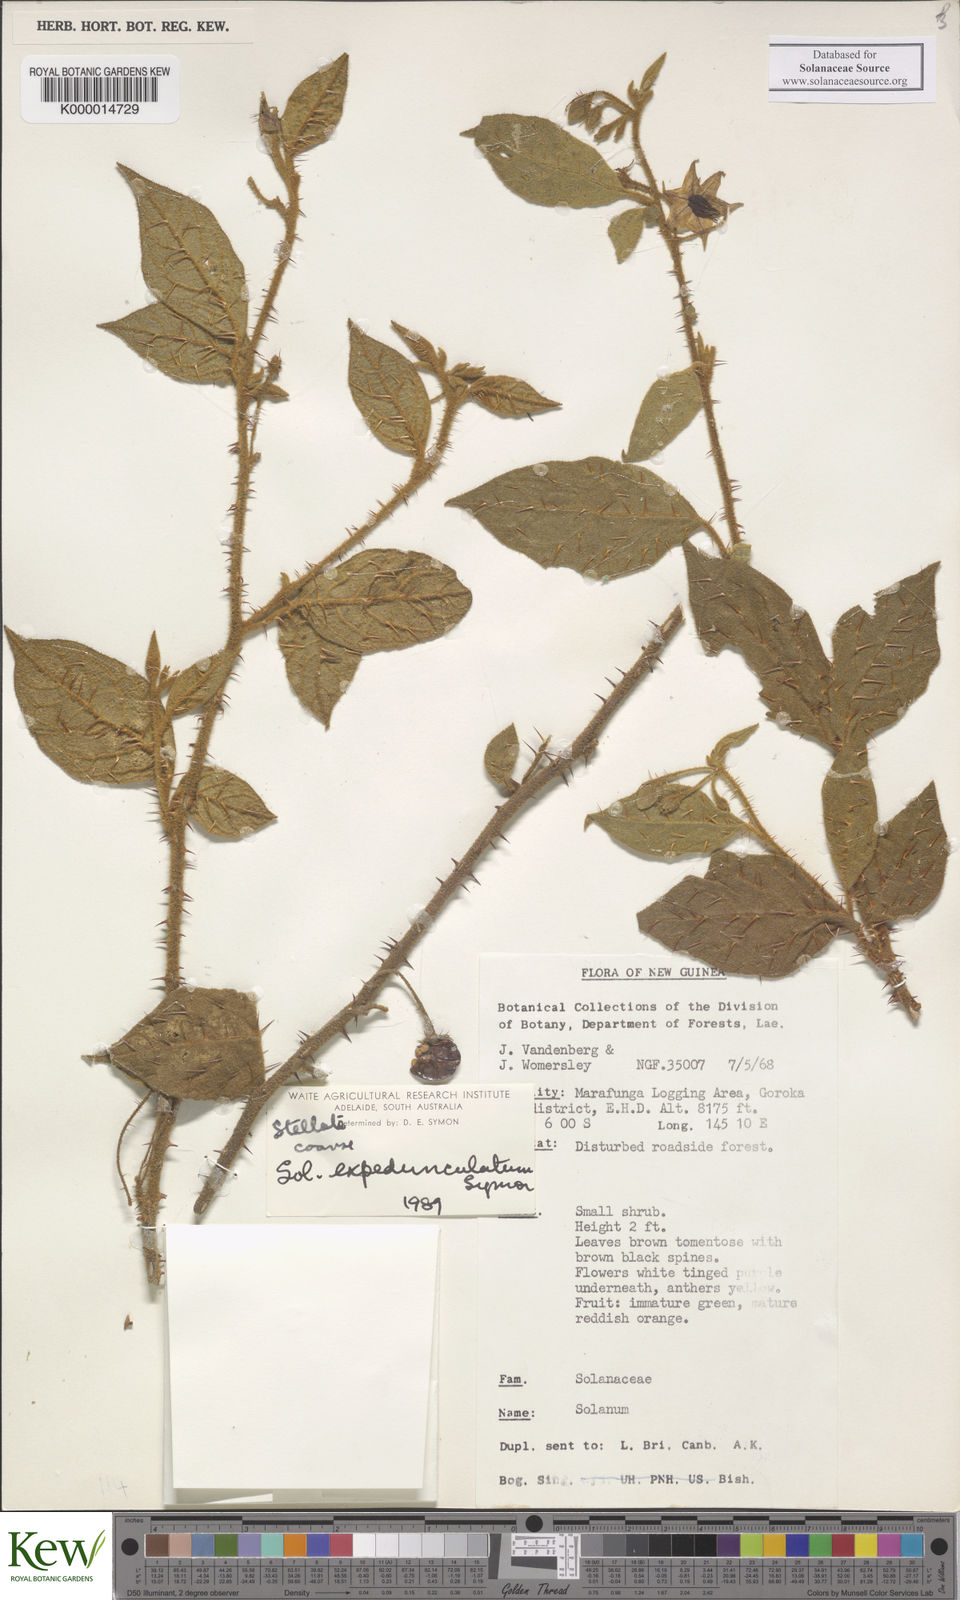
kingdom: Plantae
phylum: Tracheophyta
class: Magnoliopsida
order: Solanales
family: Solanaceae
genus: Solanum
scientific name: Solanum expedunculatum
